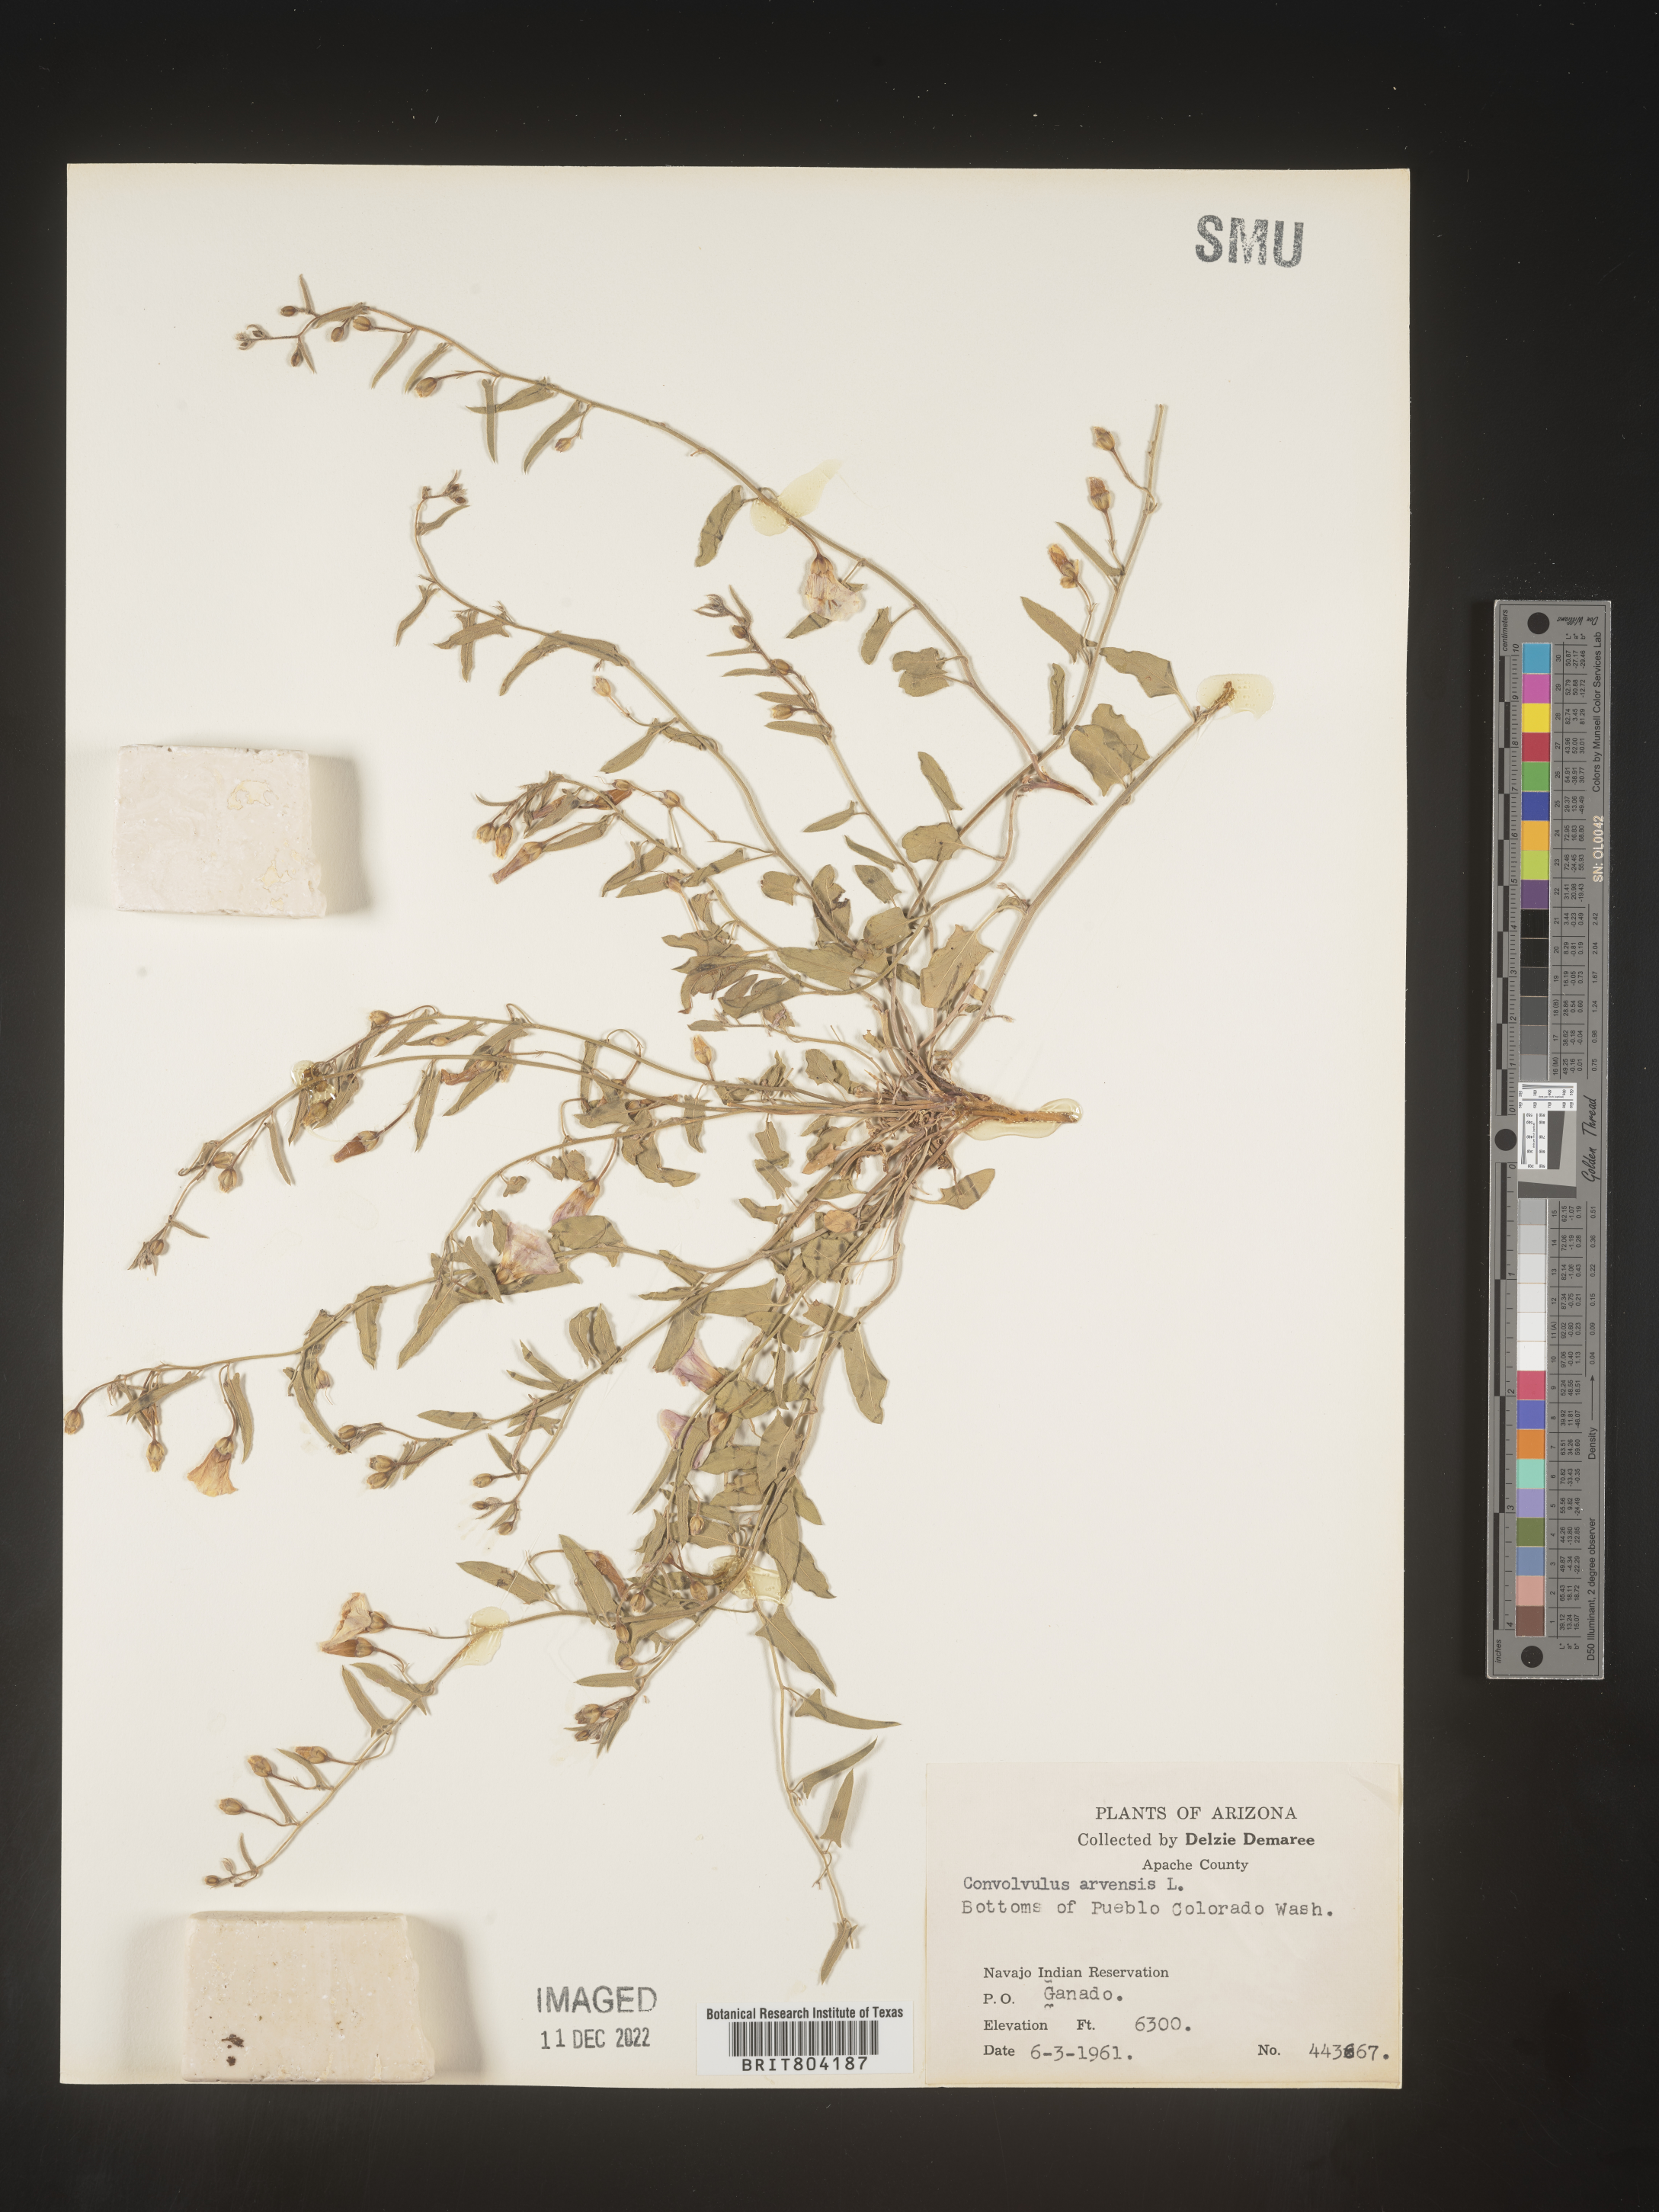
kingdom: Plantae
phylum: Tracheophyta
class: Magnoliopsida
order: Solanales
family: Convolvulaceae
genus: Convolvulus
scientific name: Convolvulus arvensis
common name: Field bindweed
